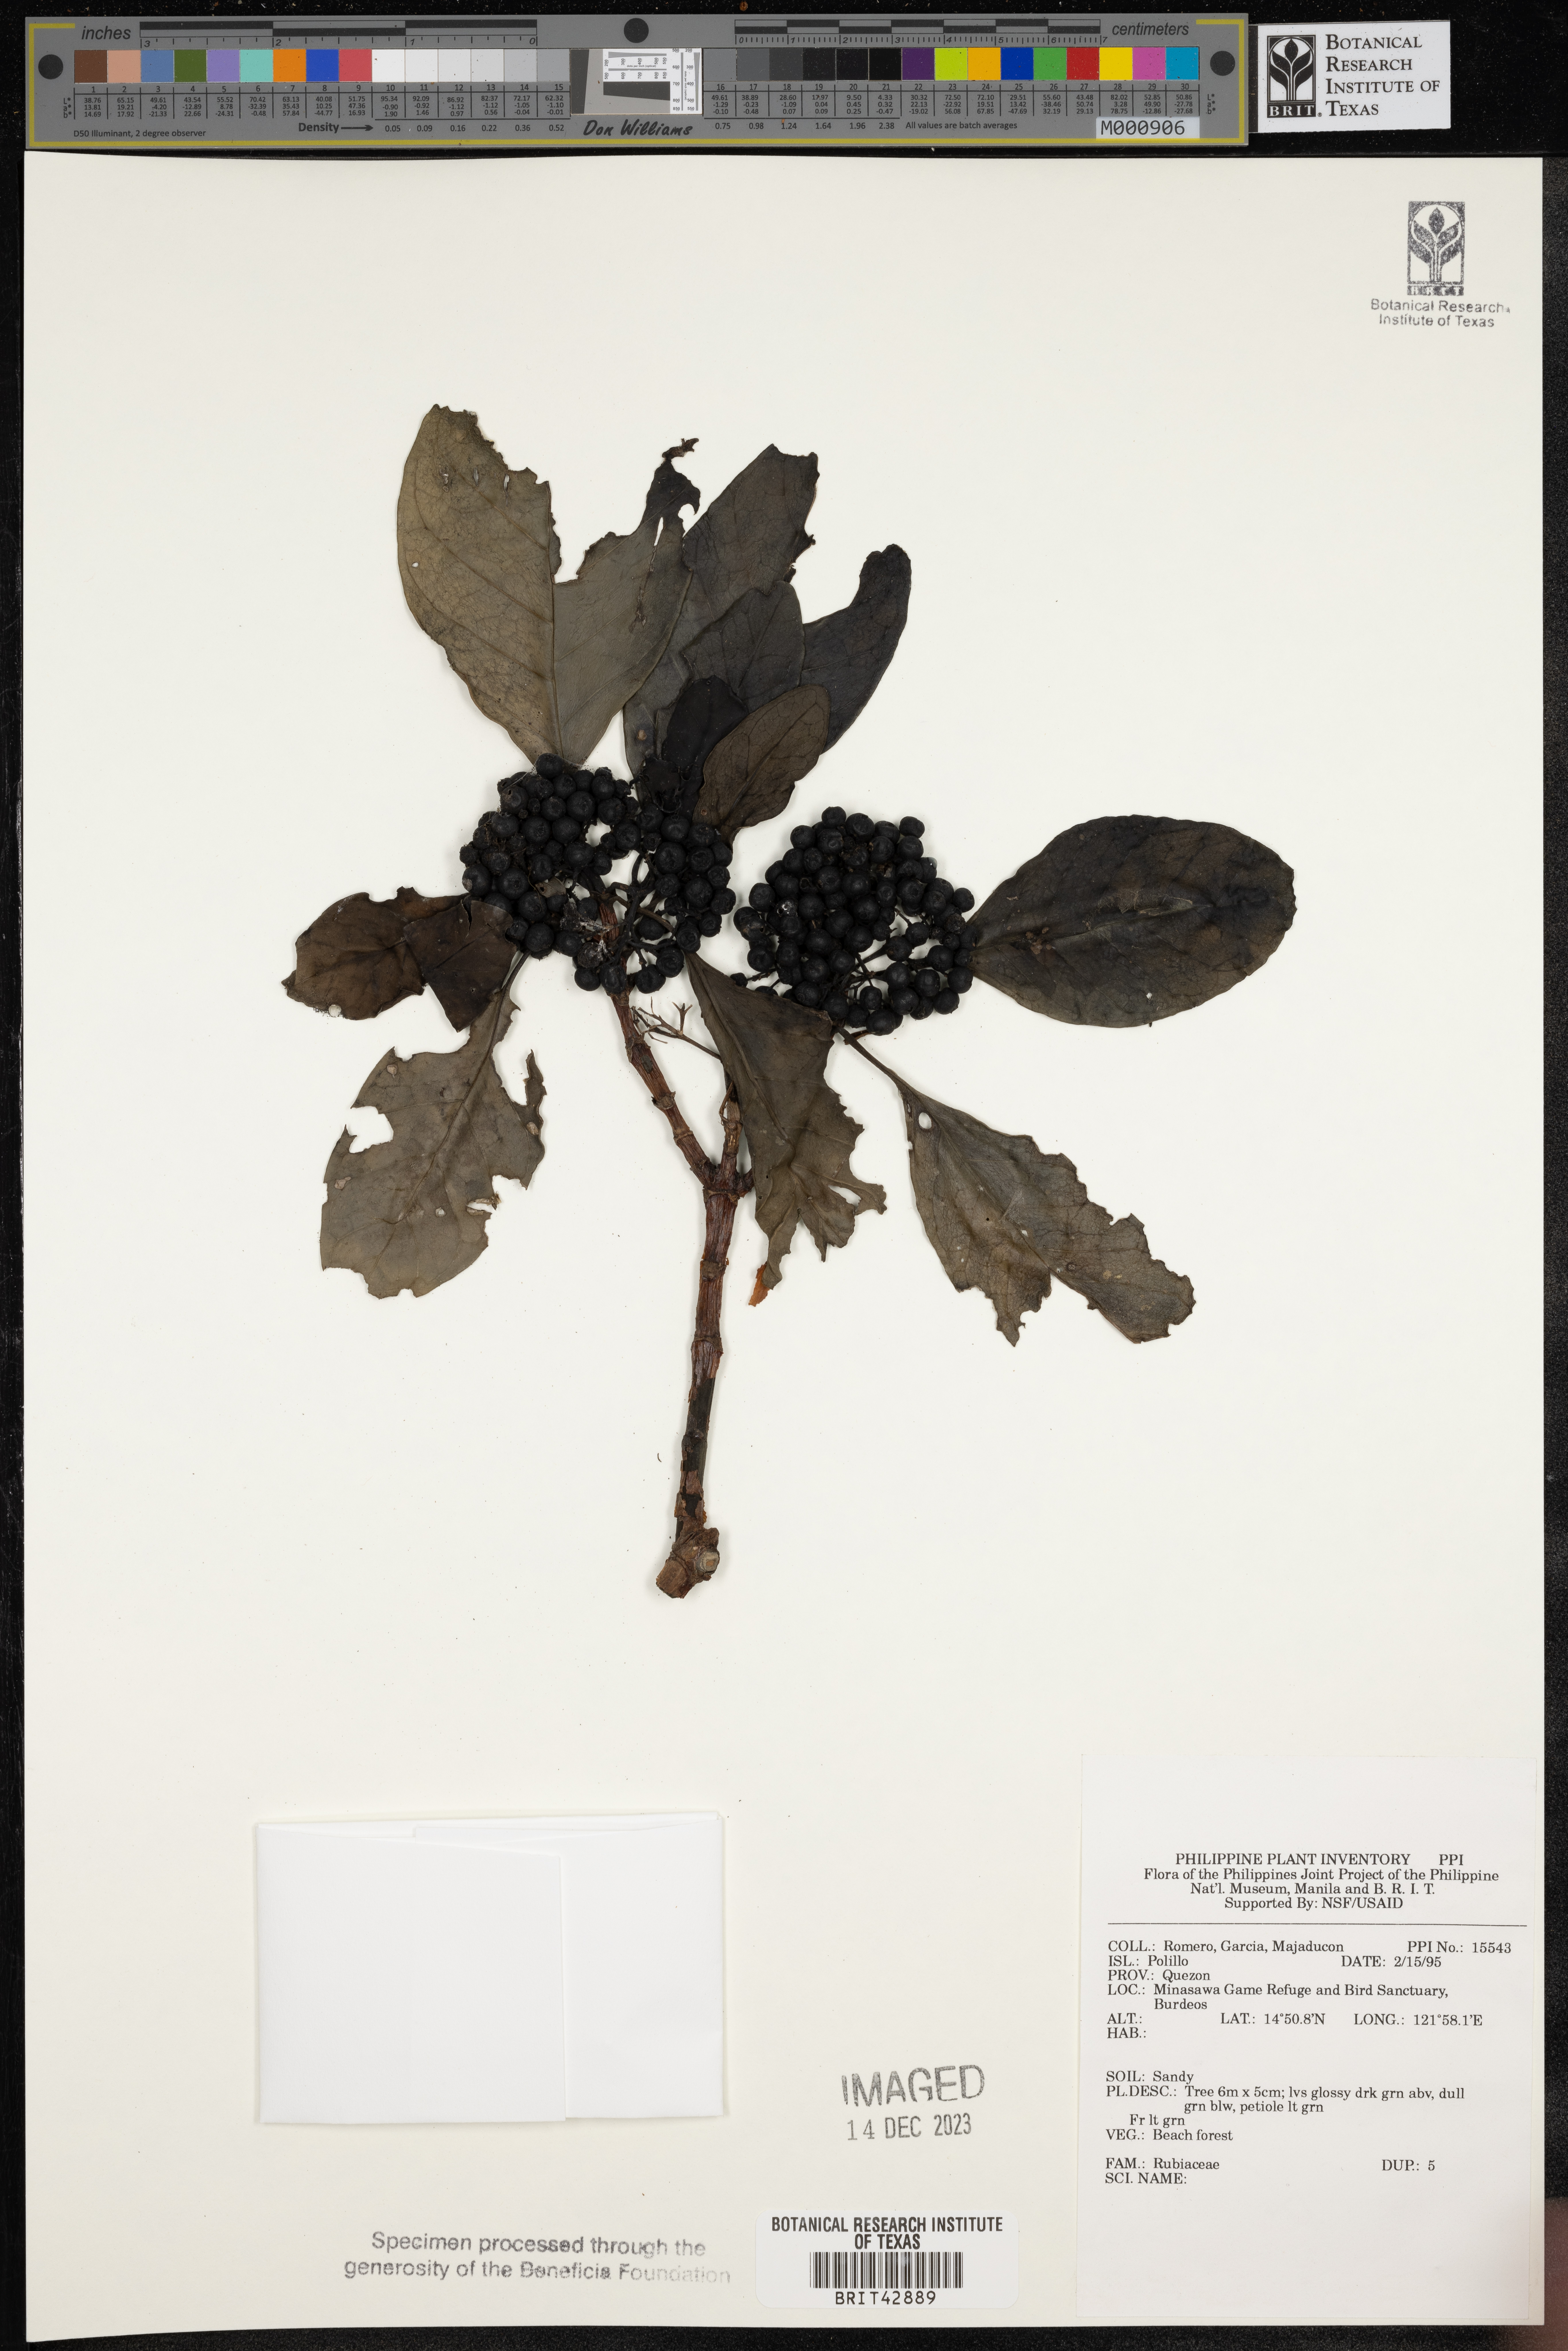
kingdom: Plantae
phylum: Tracheophyta
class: Magnoliopsida
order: Gentianales
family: Rubiaceae
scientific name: Rubiaceae
